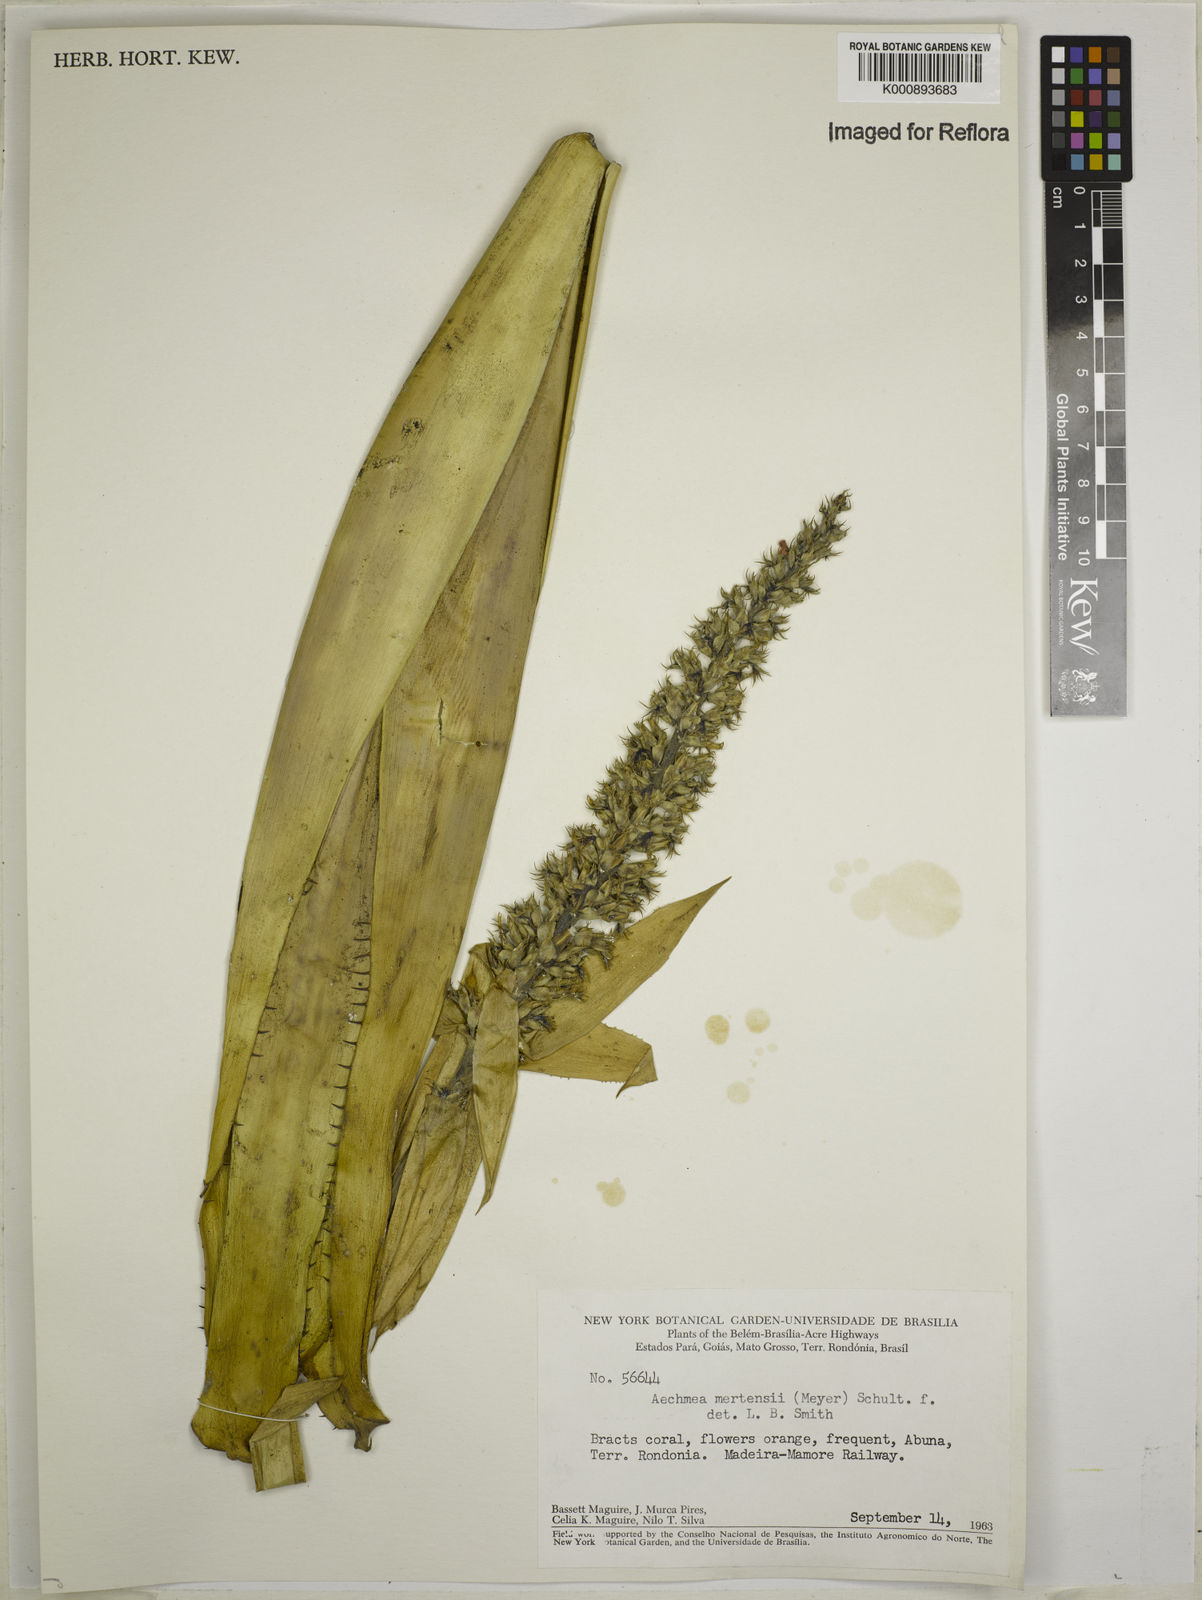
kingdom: Plantae
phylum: Tracheophyta
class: Liliopsida
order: Poales
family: Bromeliaceae
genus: Aechmea
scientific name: Aechmea mertensii
